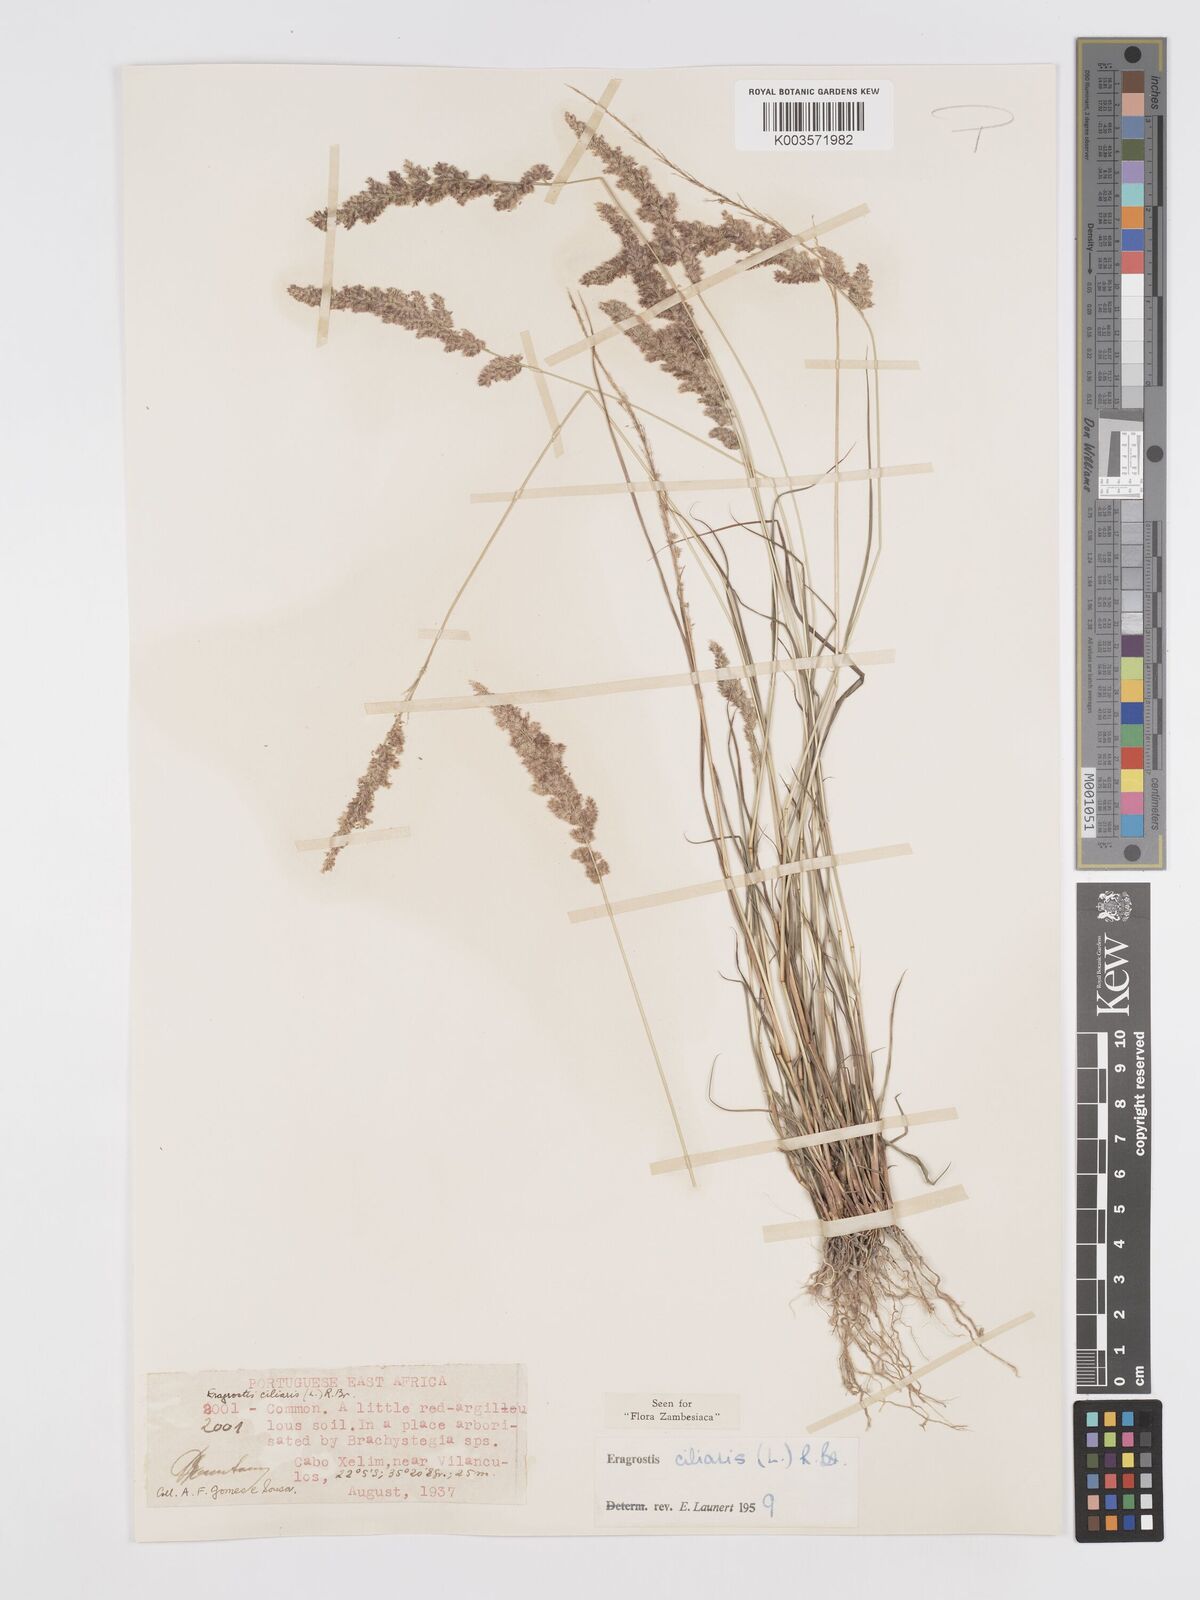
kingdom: Plantae
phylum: Tracheophyta
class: Liliopsida
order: Poales
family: Poaceae
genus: Eragrostis
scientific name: Eragrostis ciliaris
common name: Gophertail lovegrass
